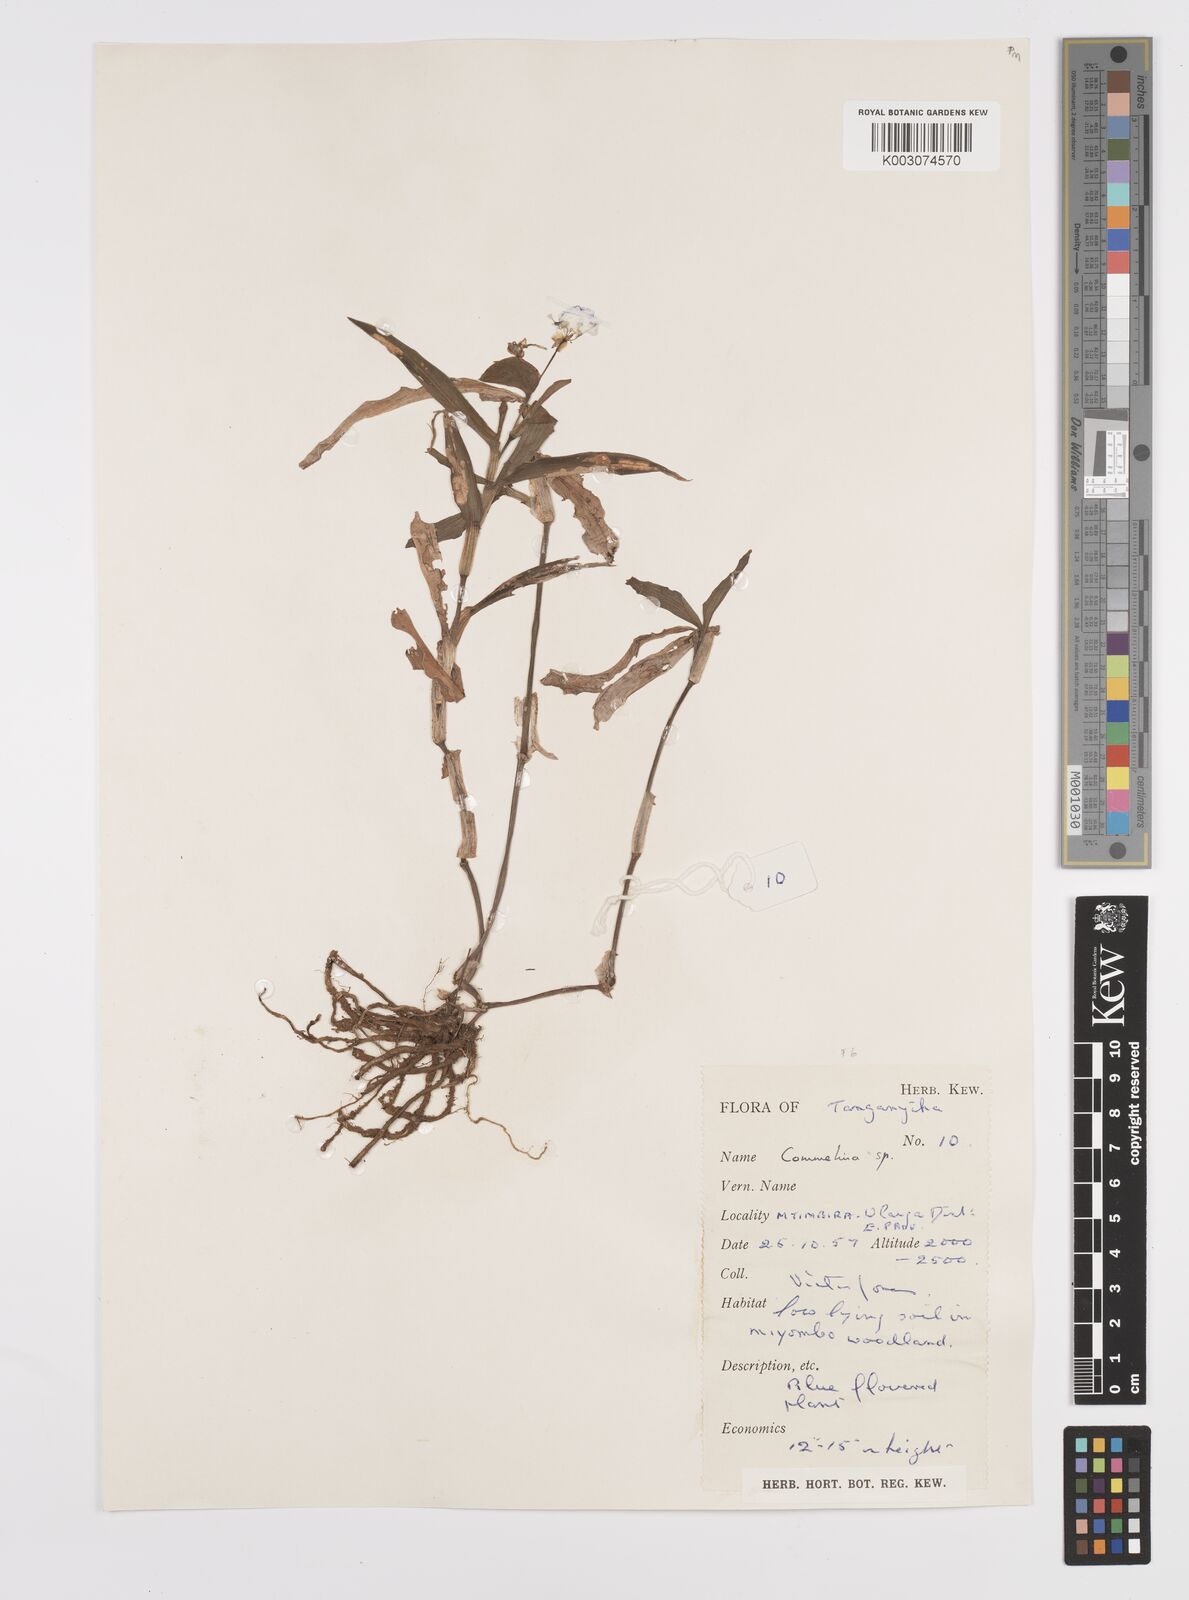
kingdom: Plantae
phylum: Tracheophyta
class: Liliopsida
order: Commelinales
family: Commelinaceae
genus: Commelina
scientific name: Commelina zambesica
